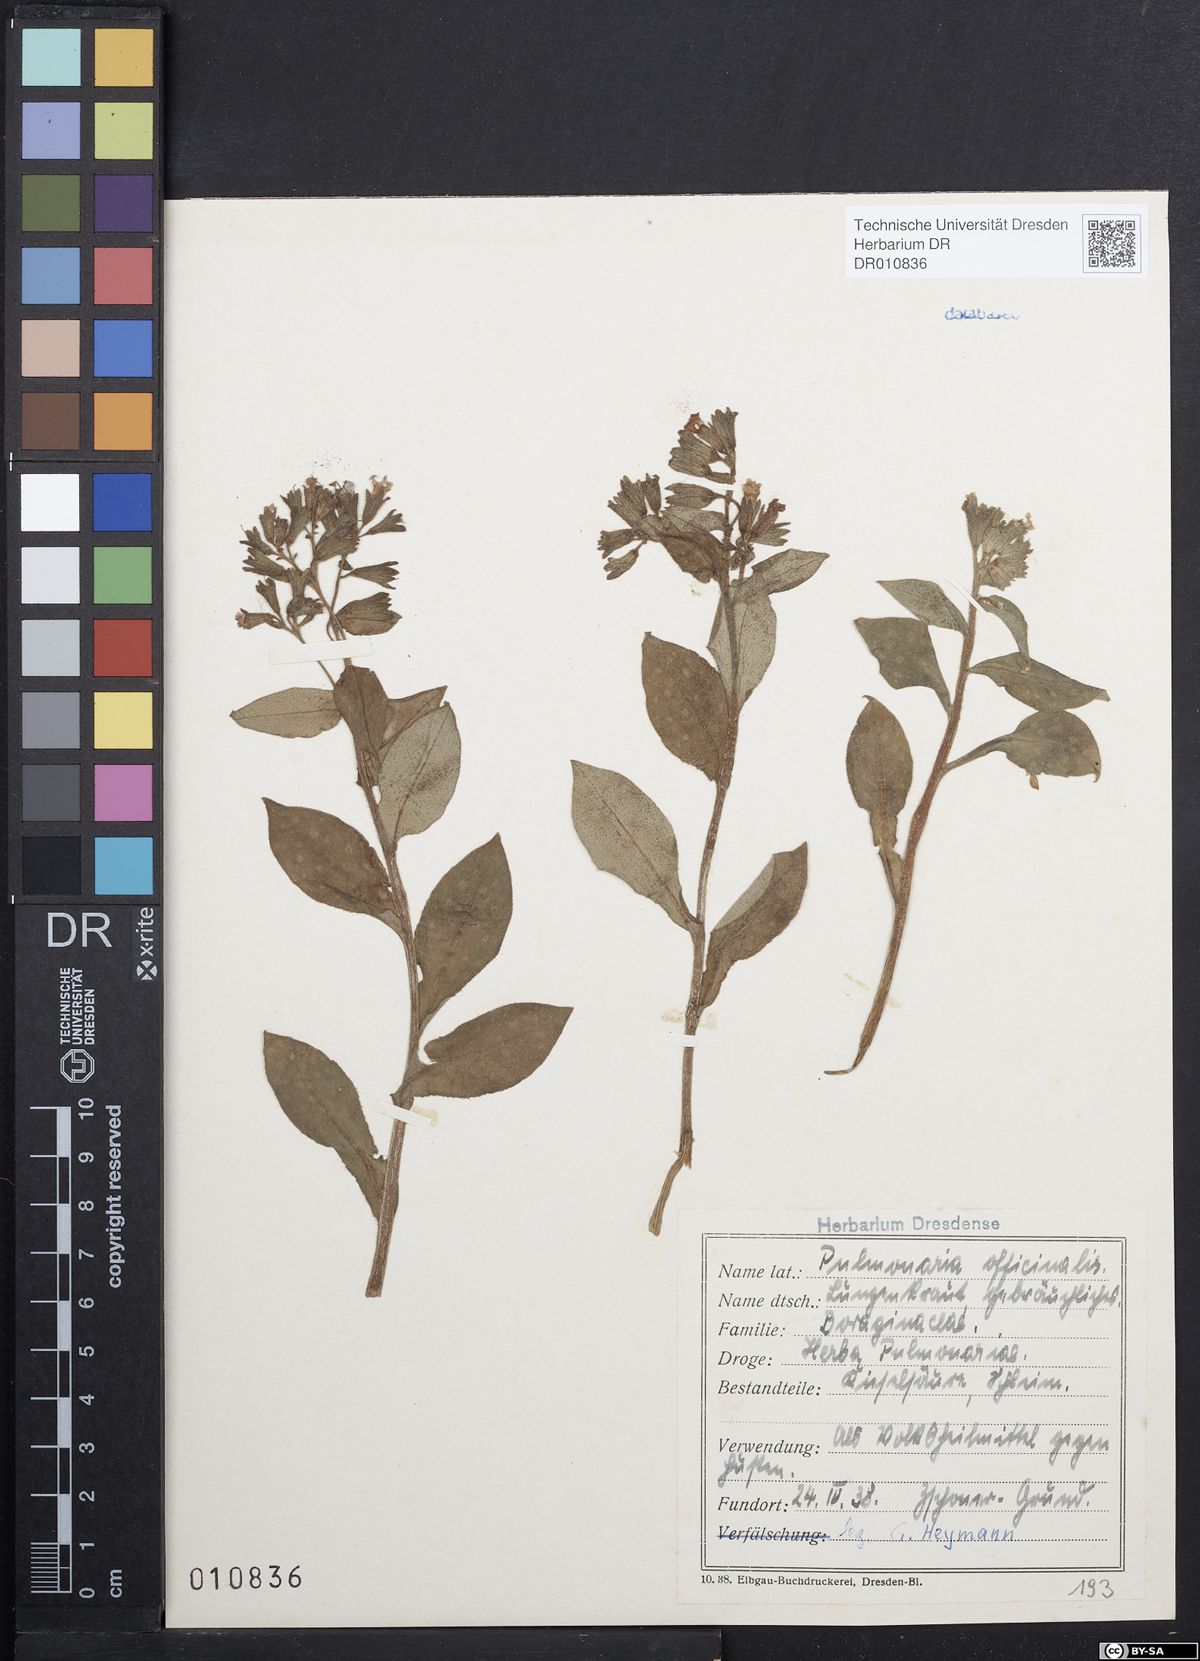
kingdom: Plantae
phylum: Tracheophyta
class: Magnoliopsida
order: Boraginales
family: Boraginaceae
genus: Pulmonaria
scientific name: Pulmonaria officinalis
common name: Lungwort
